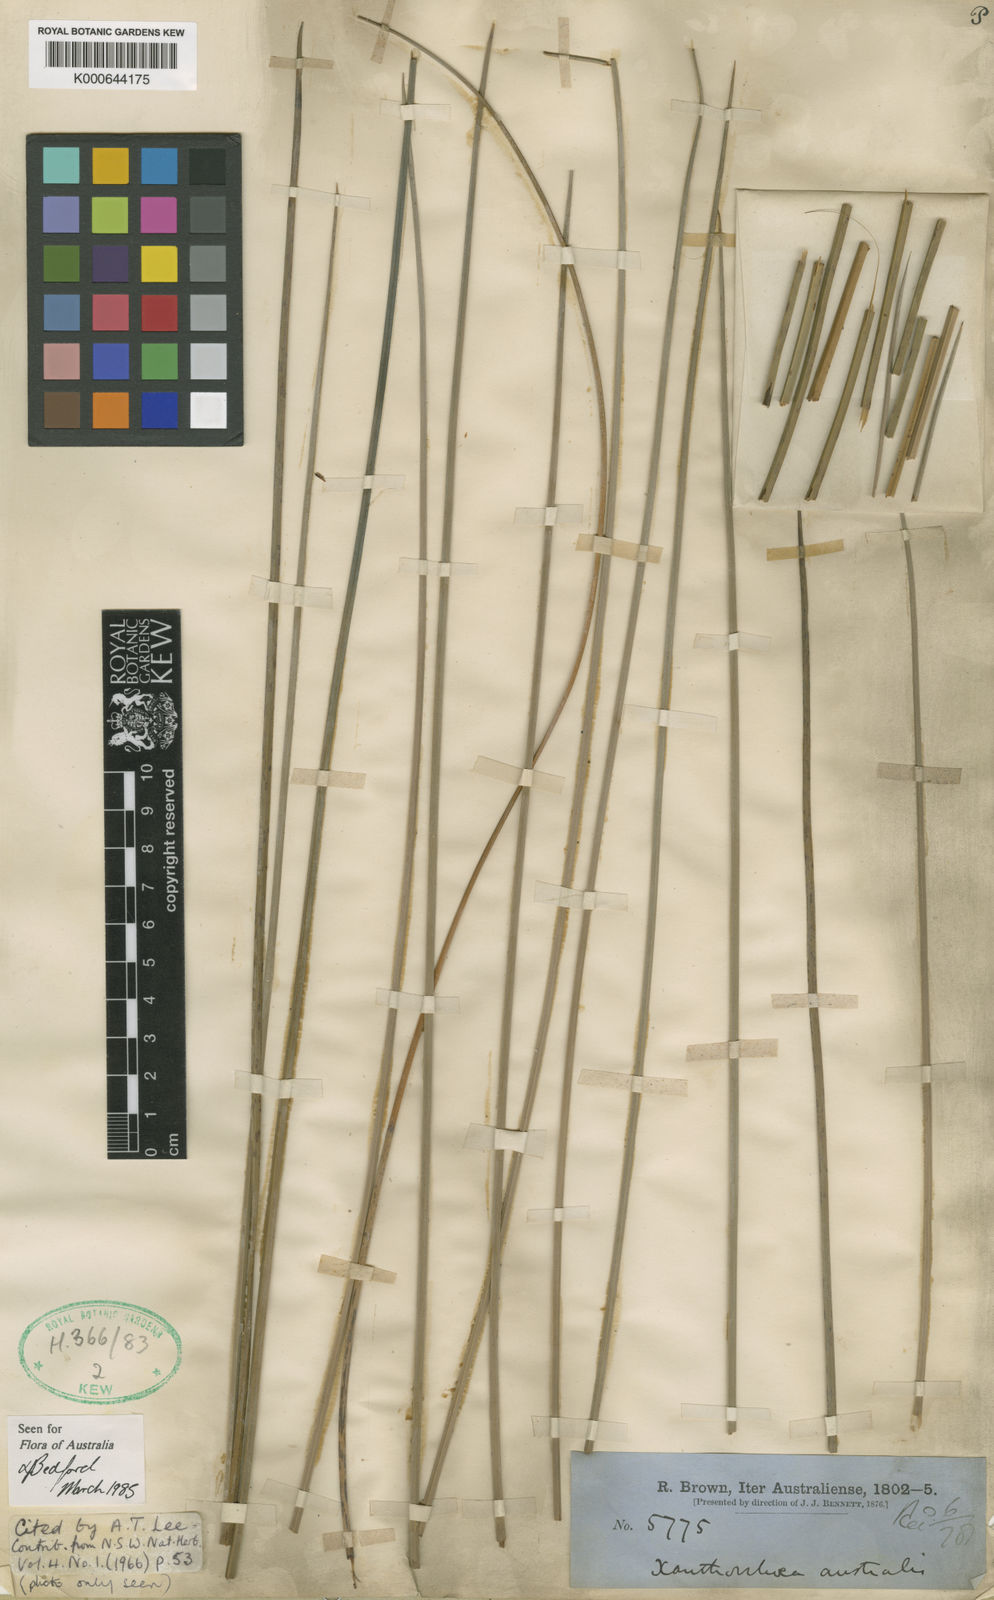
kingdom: Plantae
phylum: Tracheophyta
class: Liliopsida
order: Asparagales
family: Asphodelaceae
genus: Xanthorrhoea
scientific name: Xanthorrhoea australis
